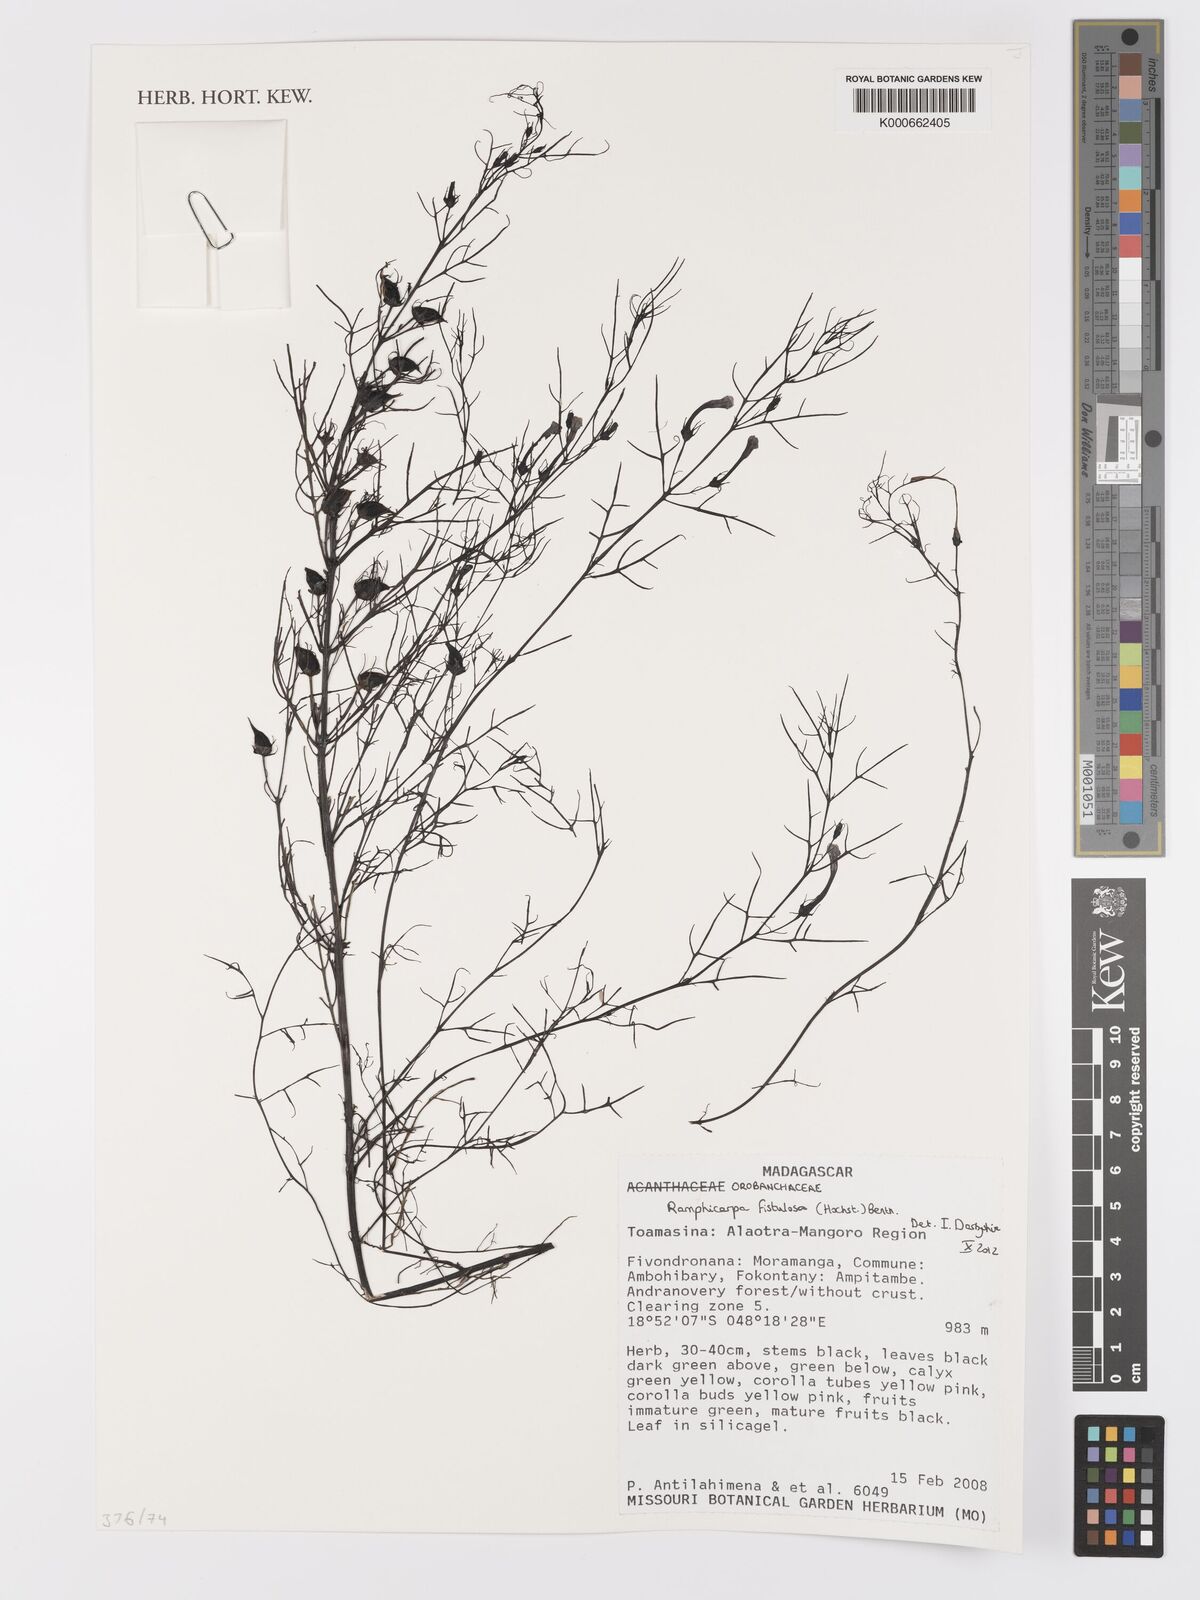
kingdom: Plantae
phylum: Tracheophyta
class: Magnoliopsida
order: Lamiales
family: Orobanchaceae
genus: Rhamphicarpa
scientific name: Rhamphicarpa fistulosa
